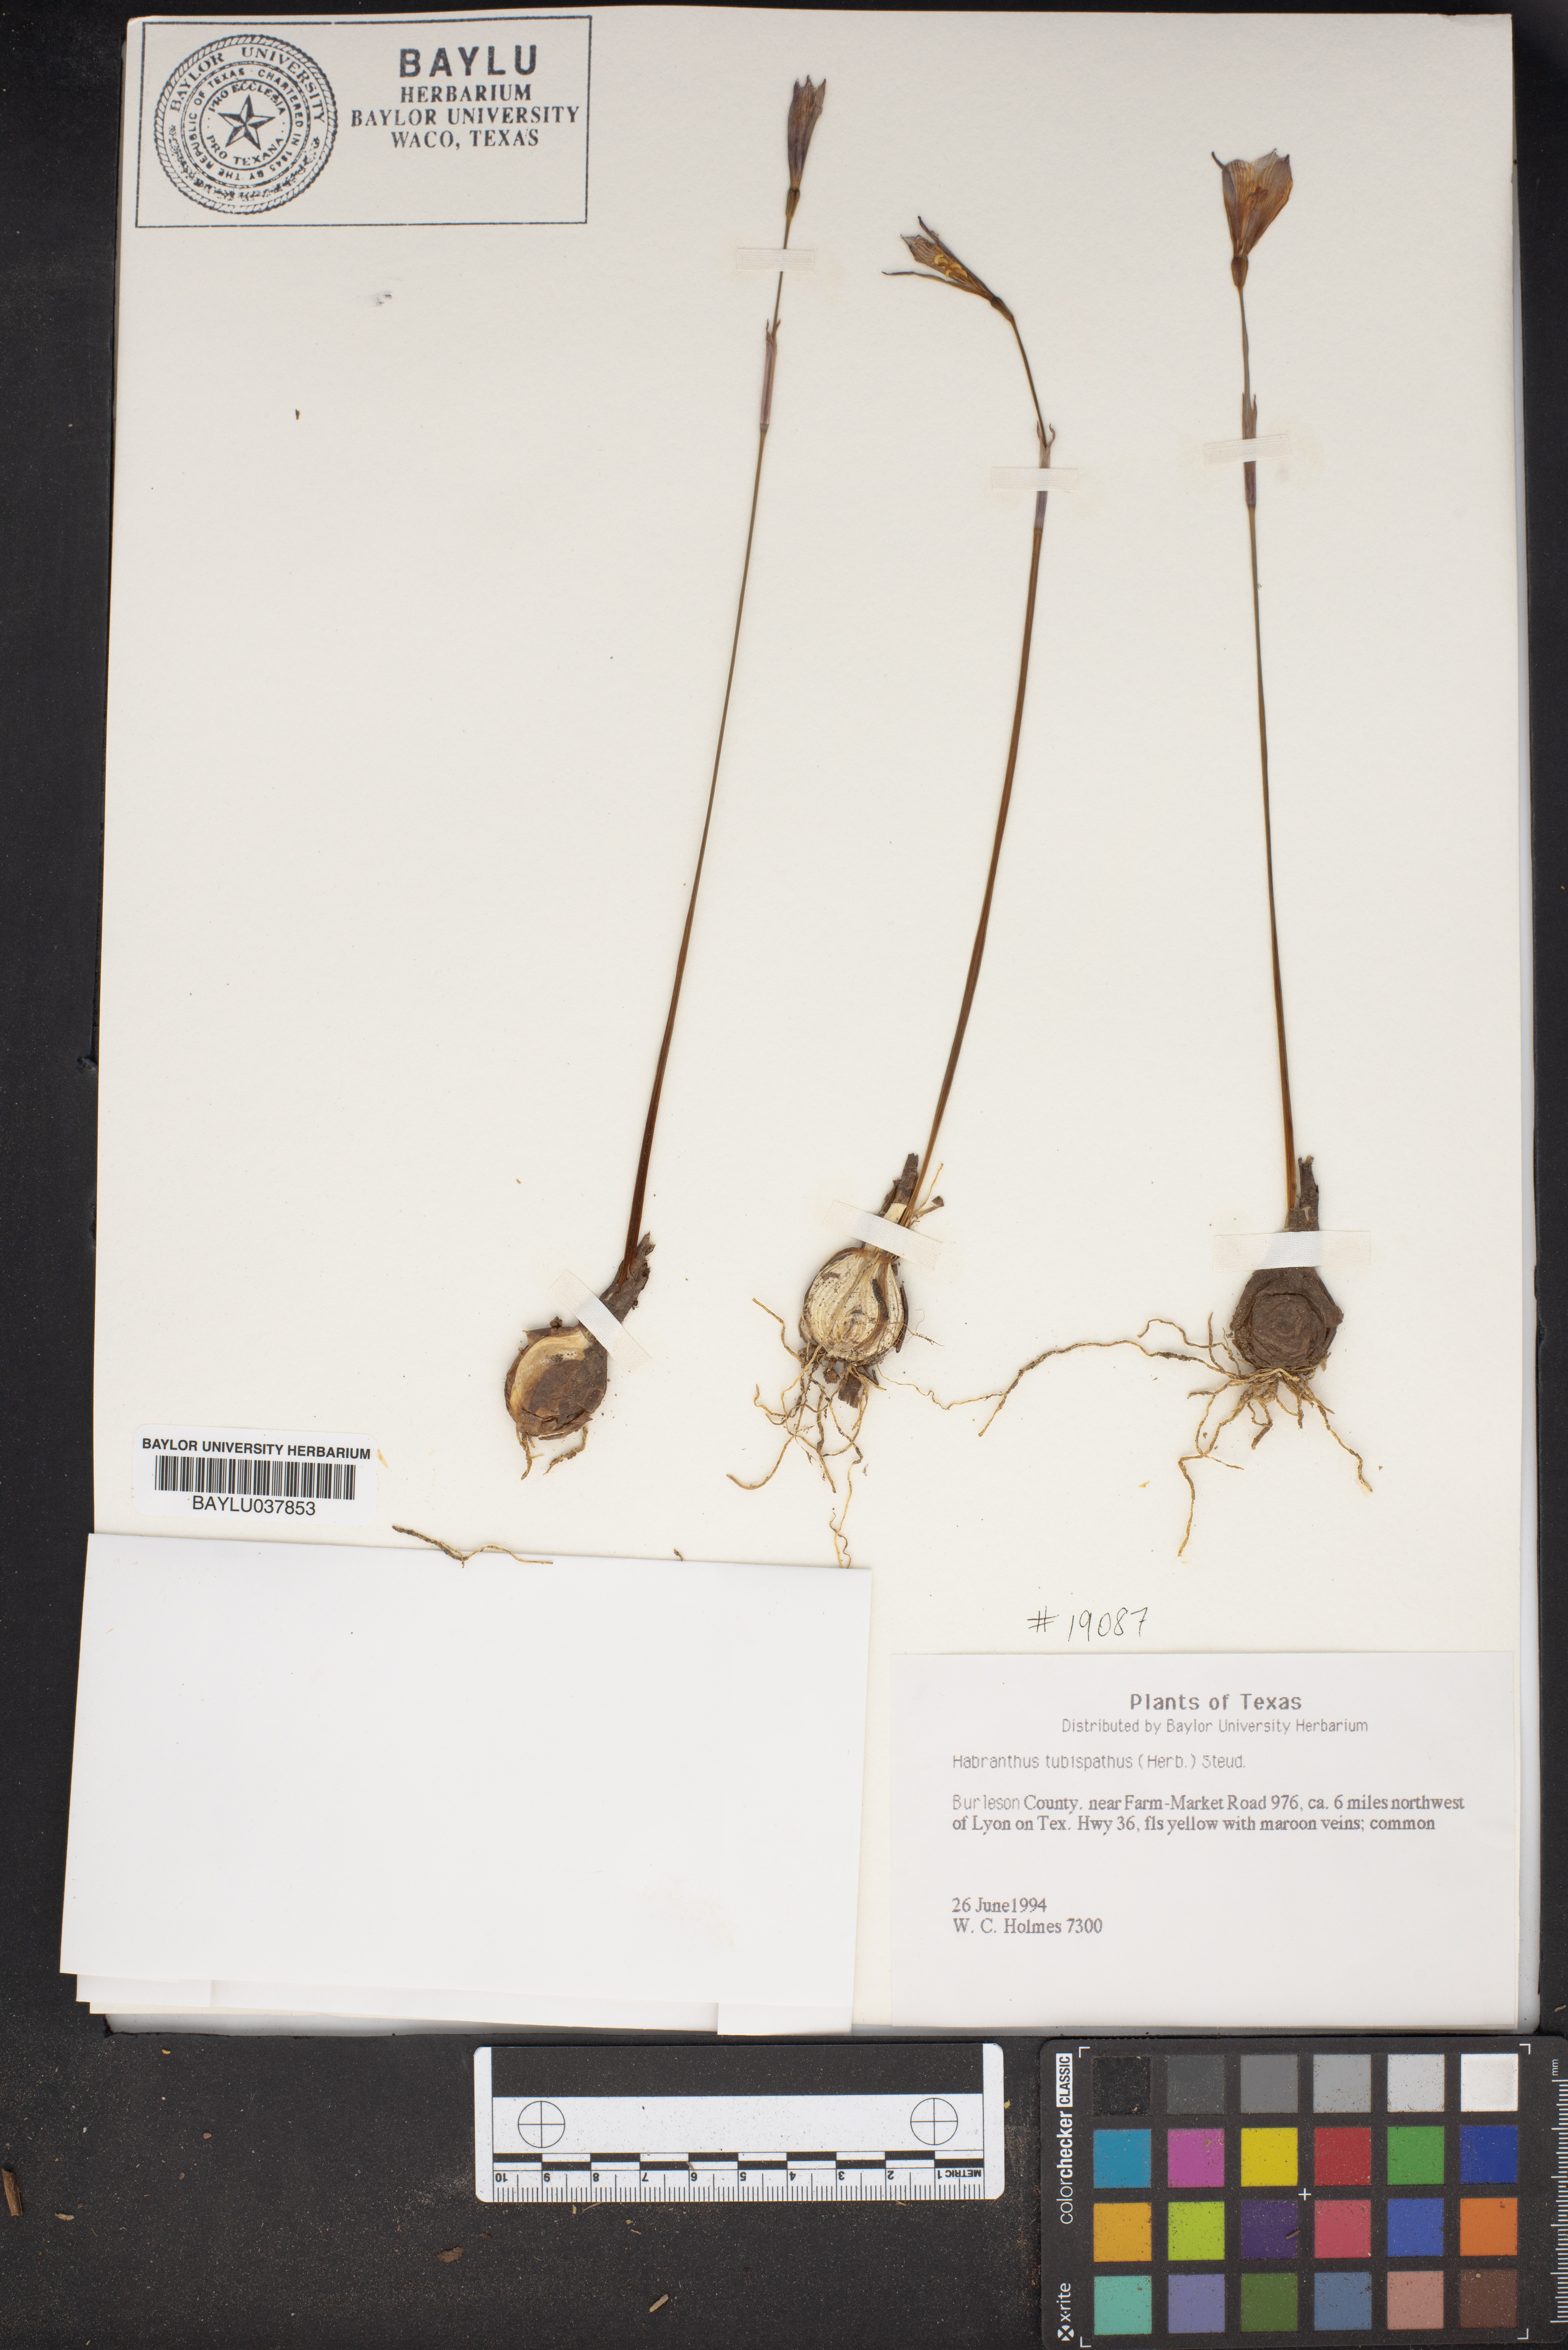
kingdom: Plantae
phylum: Tracheophyta
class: Liliopsida
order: Asparagales
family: Amaryllidaceae
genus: Zephyranthes
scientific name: Zephyranthes tubispatha
